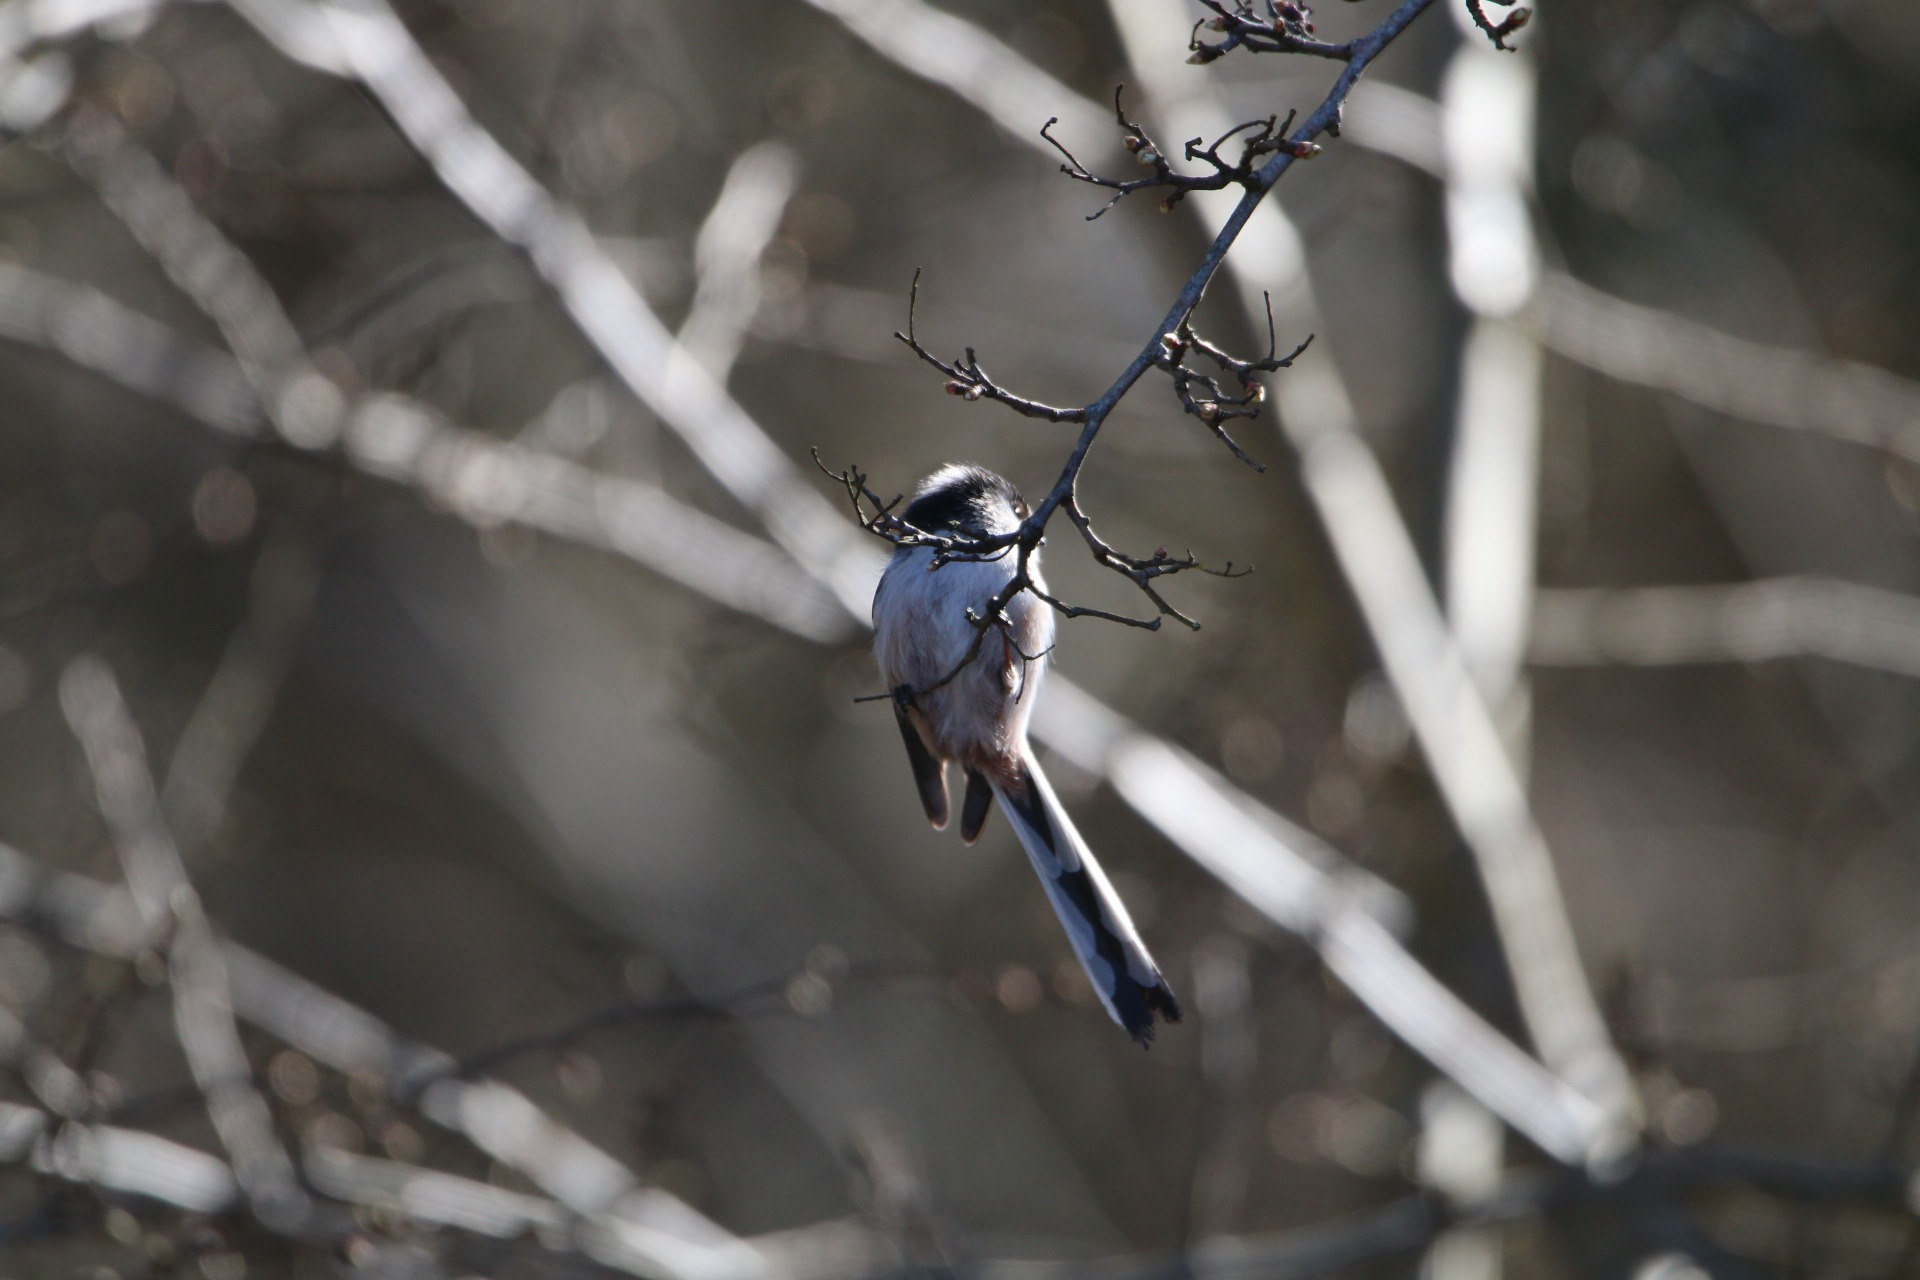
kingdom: Animalia
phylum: Chordata
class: Aves
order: Passeriformes
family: Aegithalidae
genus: Aegithalos
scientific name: Aegithalos caudatus
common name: Halemejse
